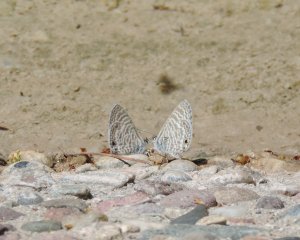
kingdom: Animalia
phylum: Arthropoda
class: Insecta
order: Lepidoptera
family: Lycaenidae
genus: Leptotes
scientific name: Leptotes marina
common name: Marine Blue
